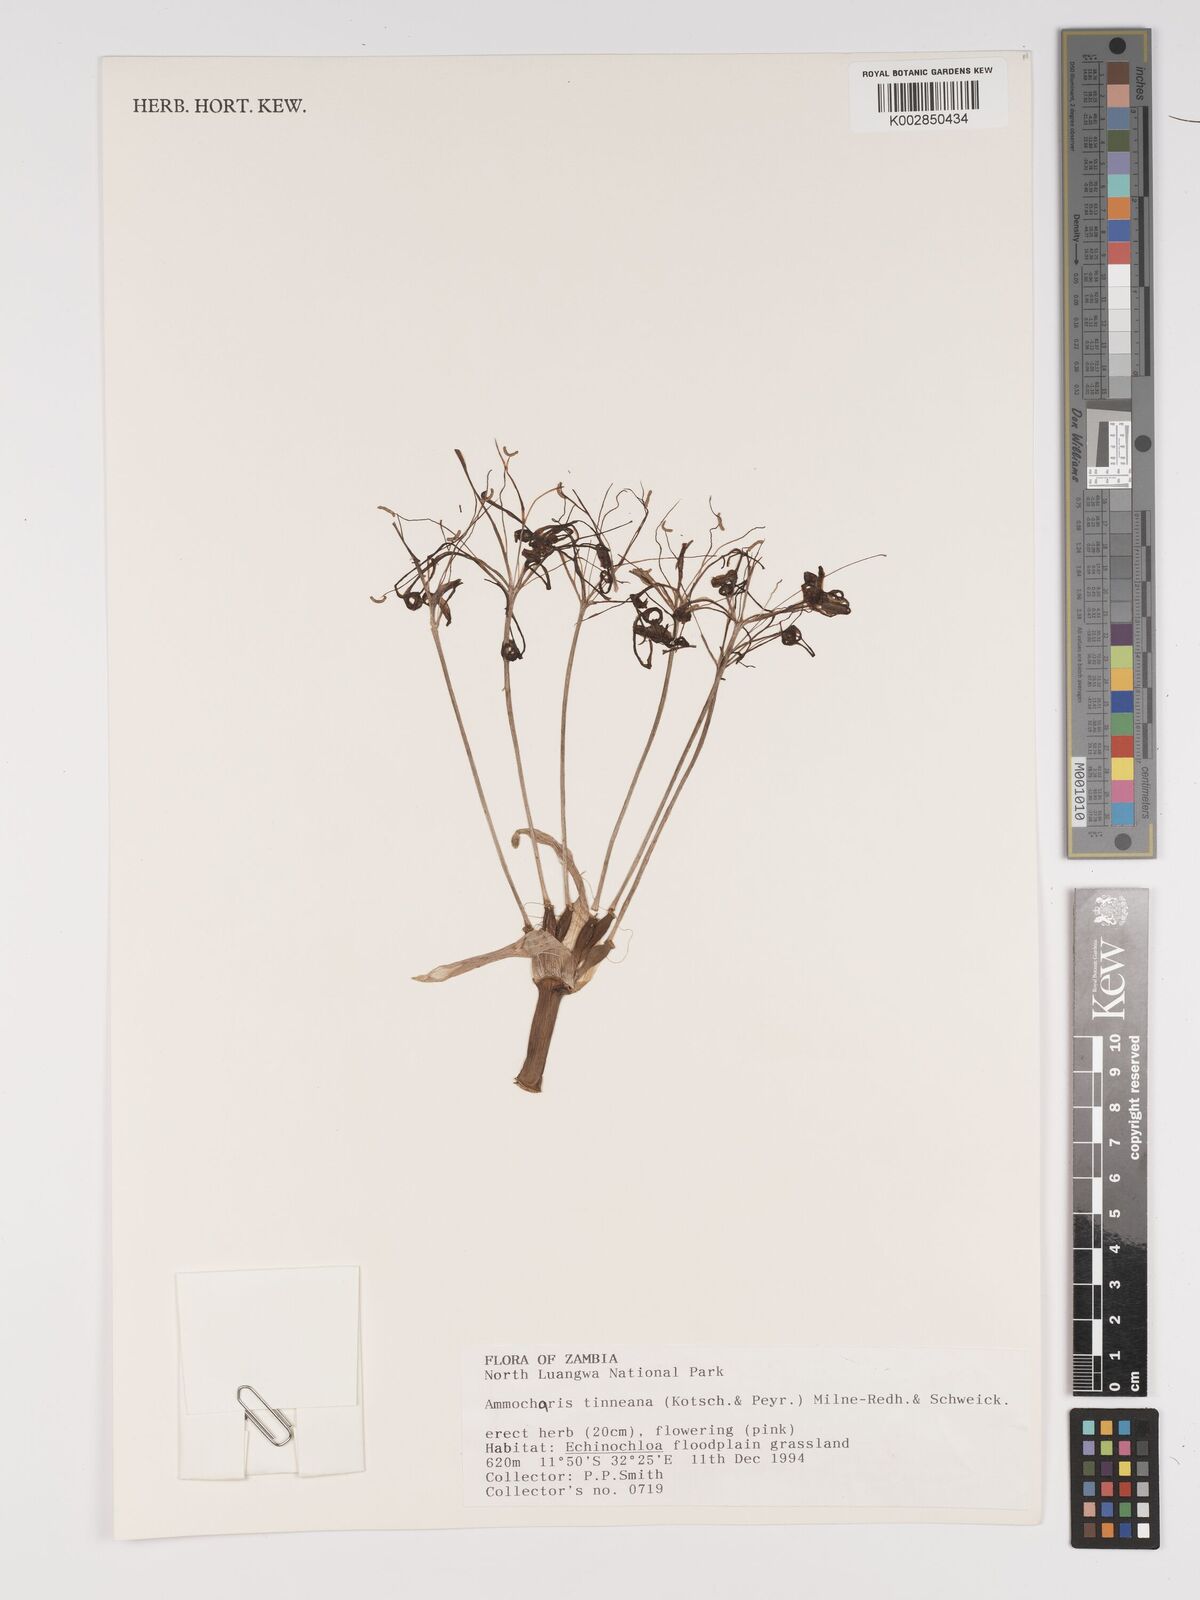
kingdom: Plantae
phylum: Tracheophyta
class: Liliopsida
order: Asparagales
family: Amaryllidaceae
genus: Ammocharis
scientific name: Ammocharis tinneana
